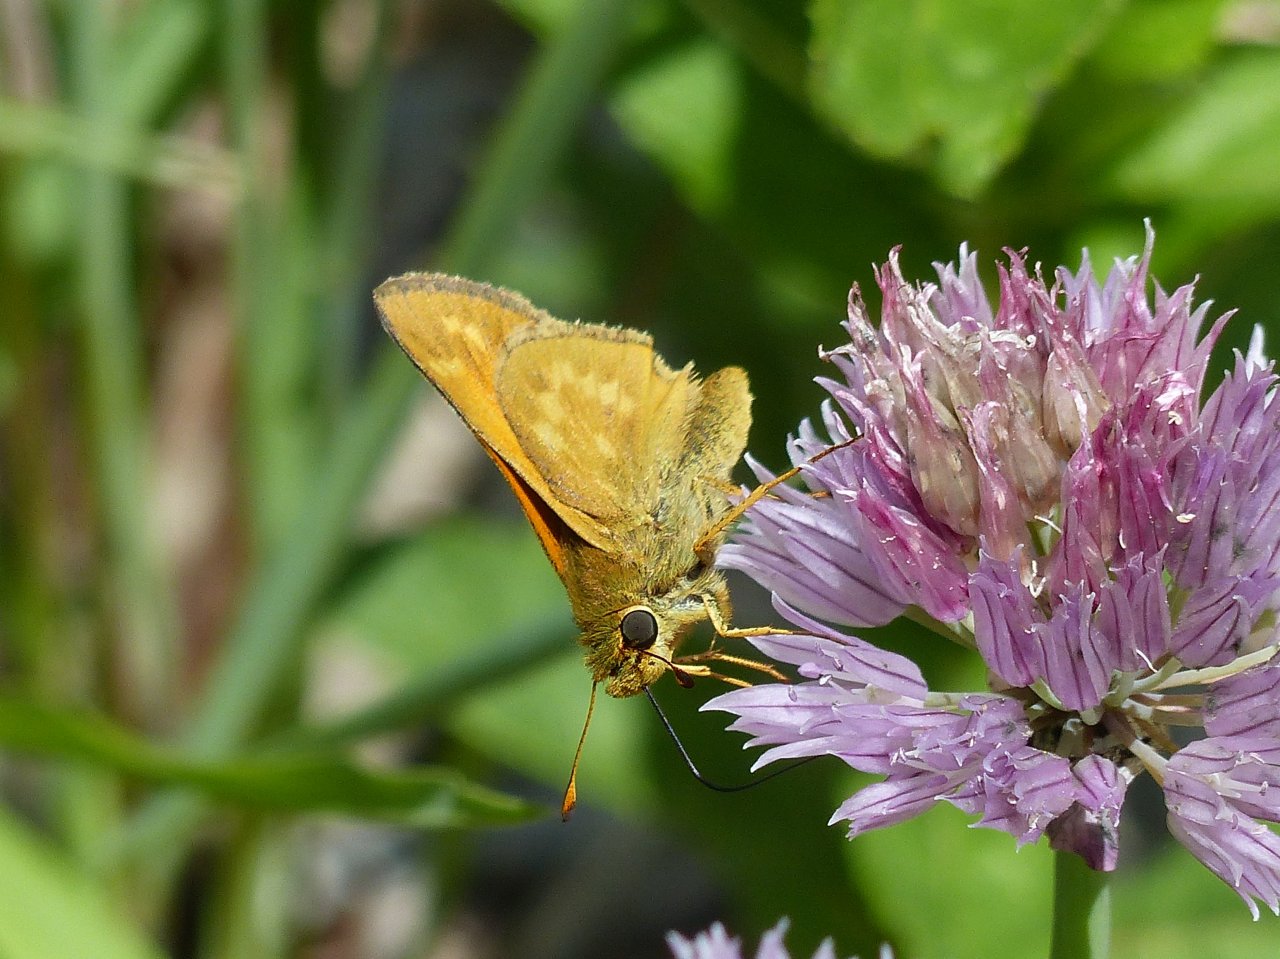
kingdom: Animalia
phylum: Arthropoda
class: Insecta
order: Lepidoptera
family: Hesperiidae
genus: Hesperia
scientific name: Hesperia sassacus
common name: Sassacus Skipper
